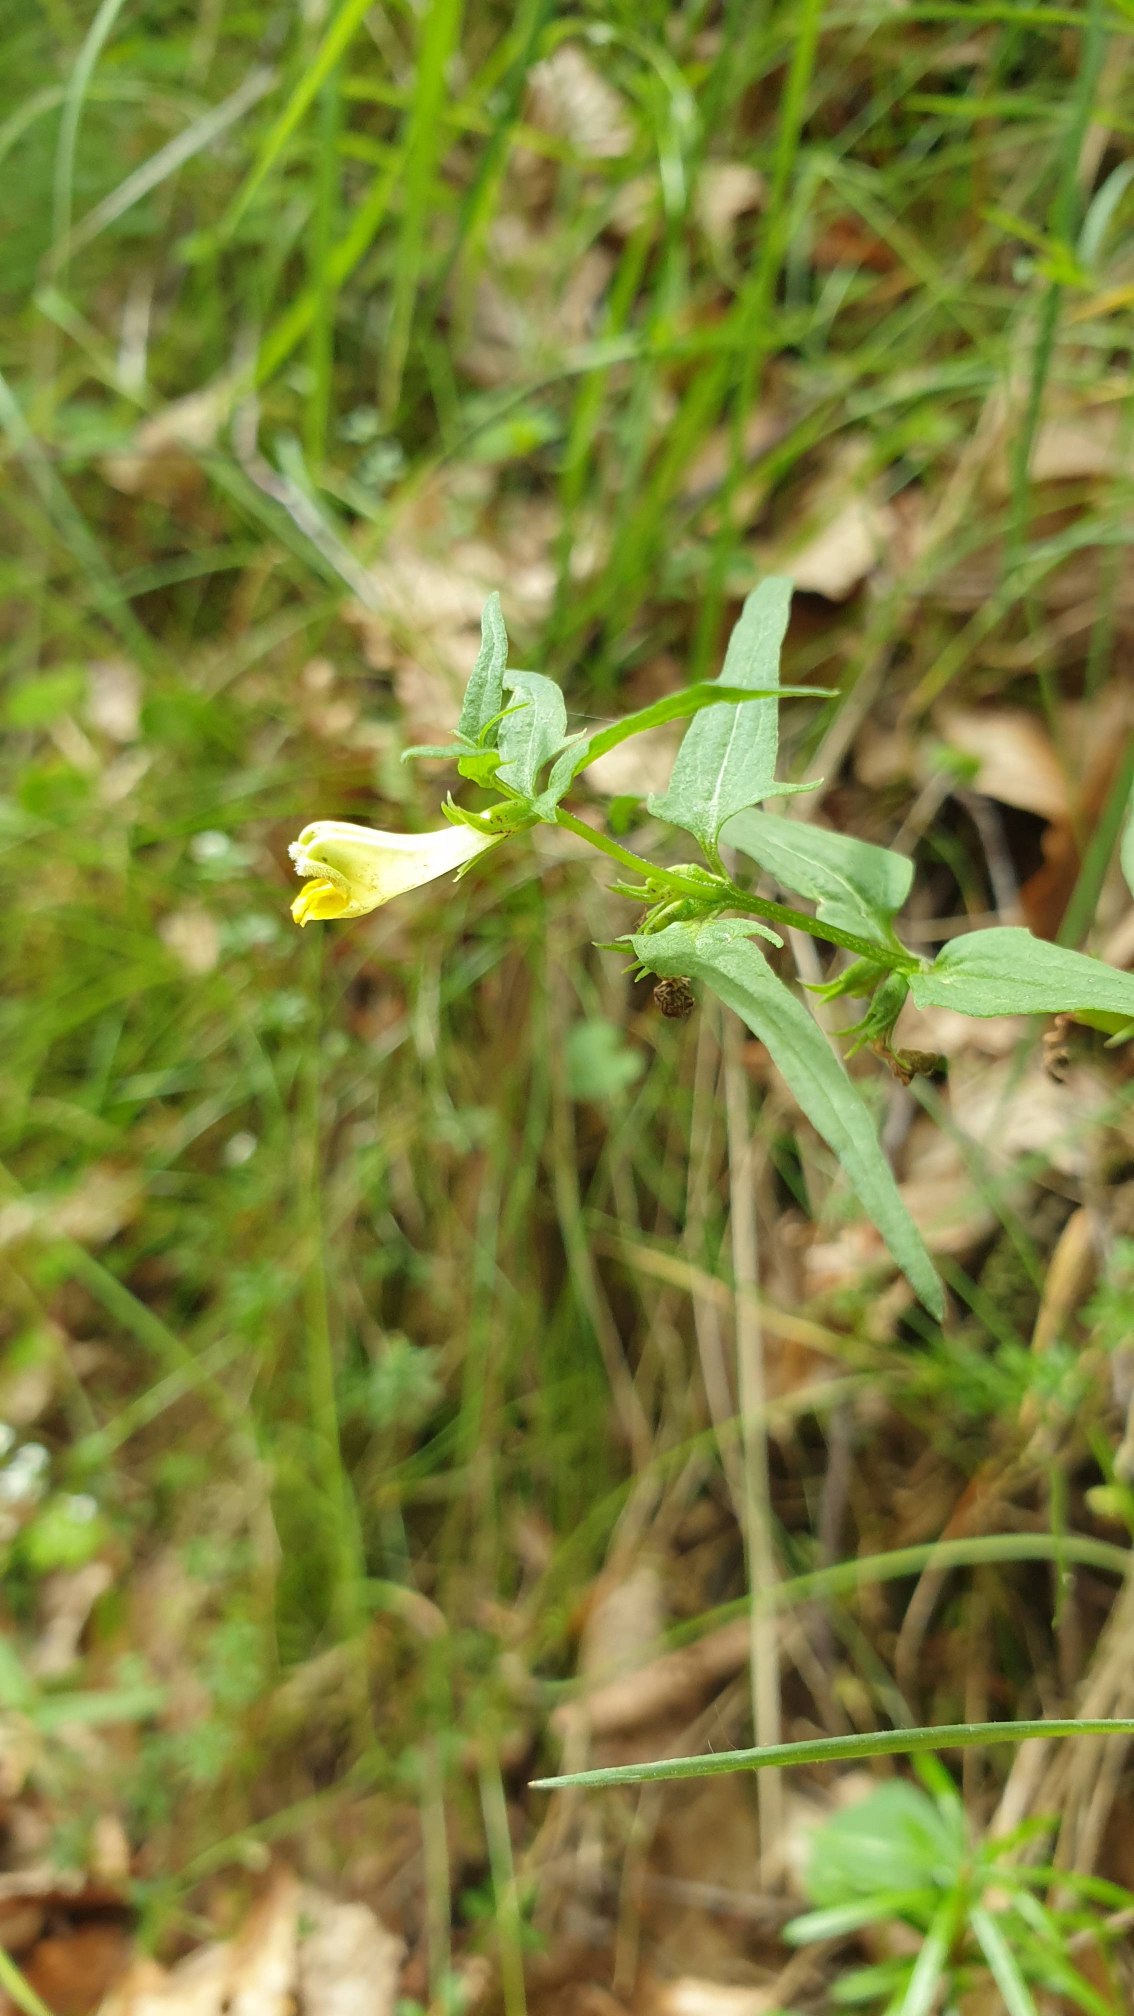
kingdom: Plantae
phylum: Tracheophyta
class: Magnoliopsida
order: Lamiales
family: Orobanchaceae
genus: Melampyrum
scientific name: Melampyrum pratense
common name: Almindelig kohvede
